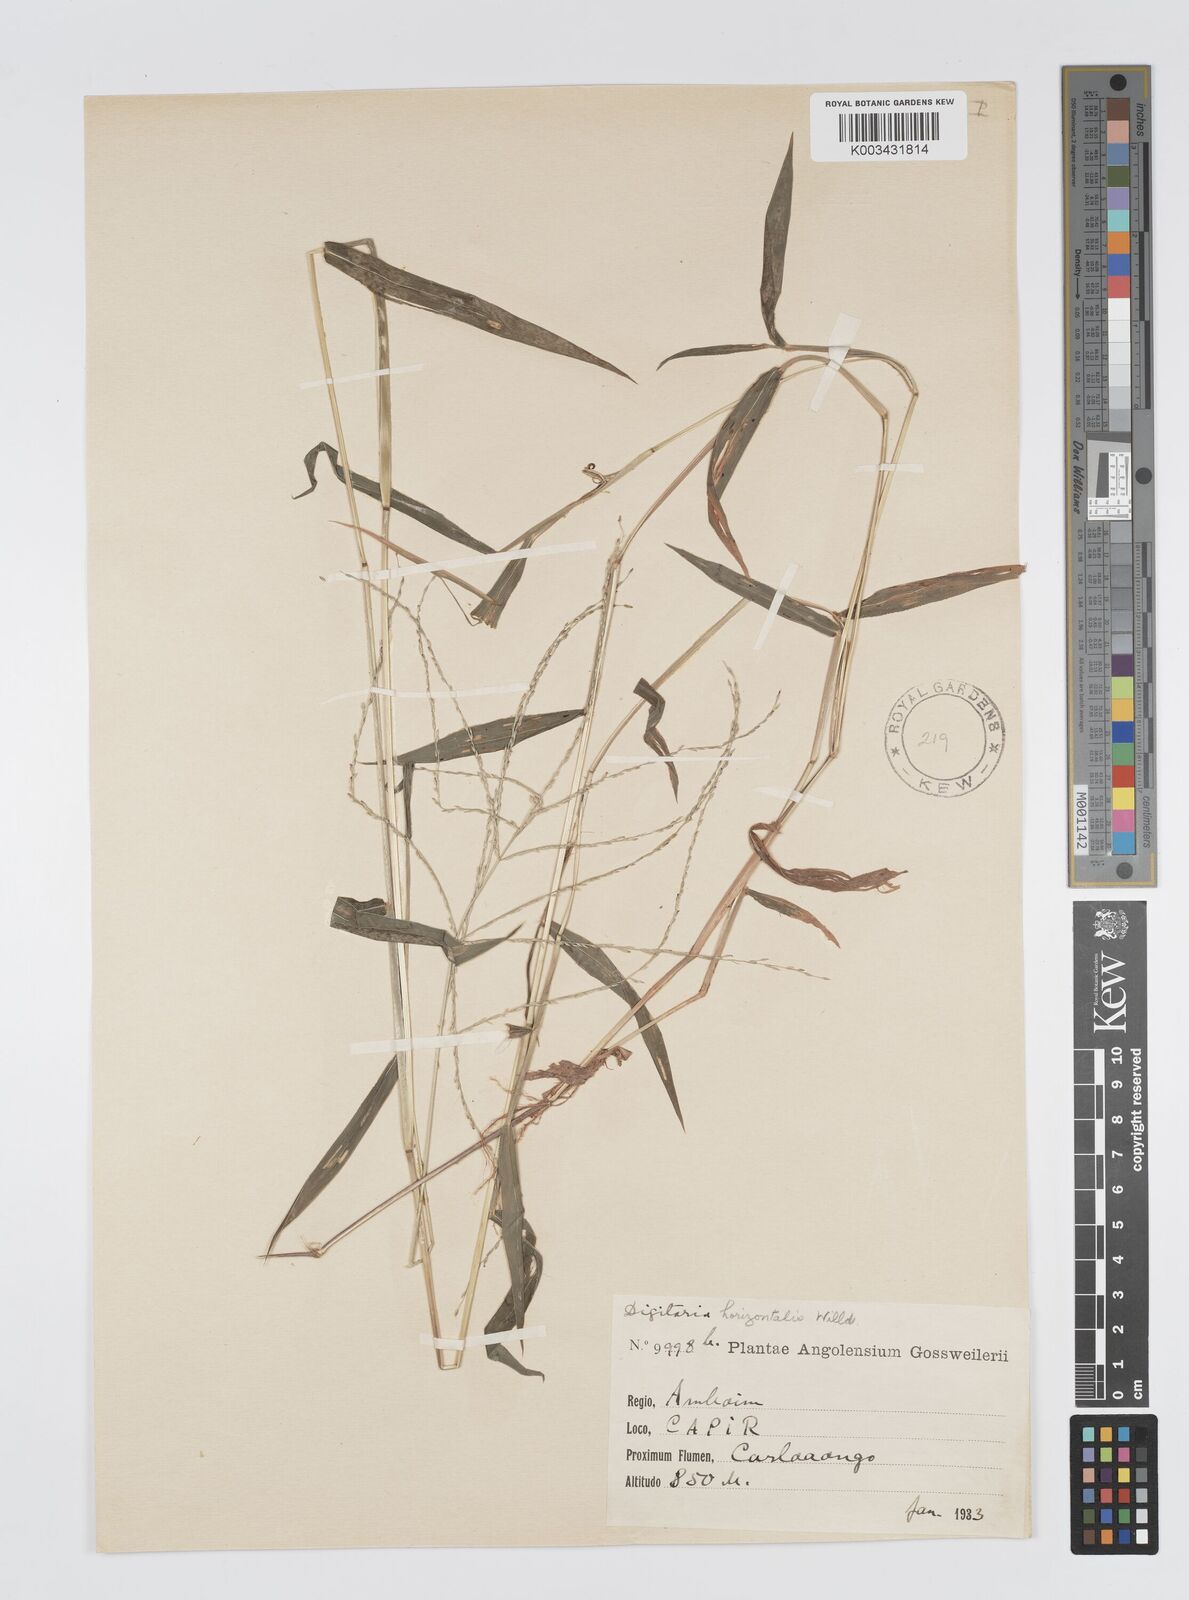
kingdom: Plantae
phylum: Tracheophyta
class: Liliopsida
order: Poales
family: Poaceae
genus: Digitaria
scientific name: Digitaria pearsonii
